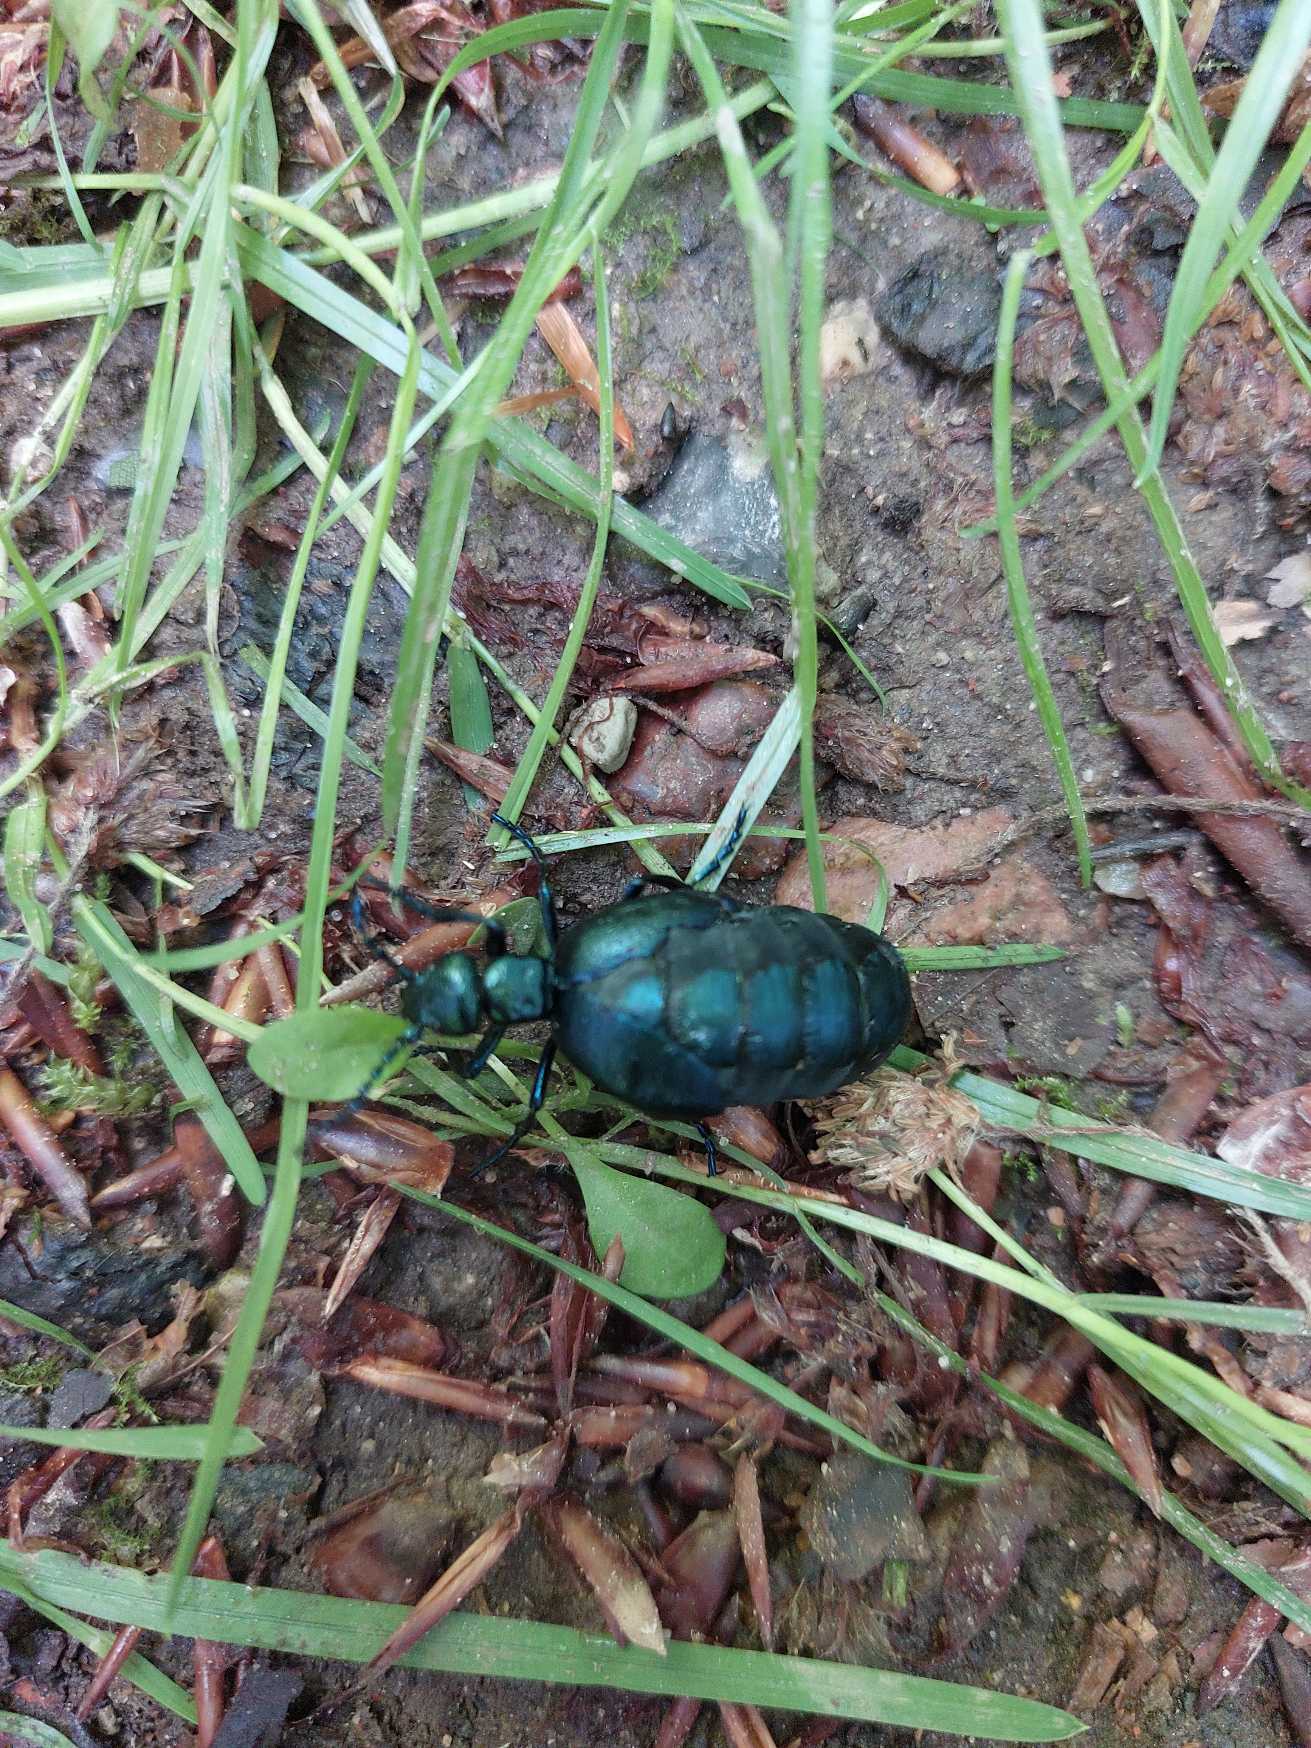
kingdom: Animalia
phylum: Arthropoda
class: Insecta
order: Coleoptera
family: Meloidae
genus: Meloe
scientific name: Meloe violaceus
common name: Blå oliebille
